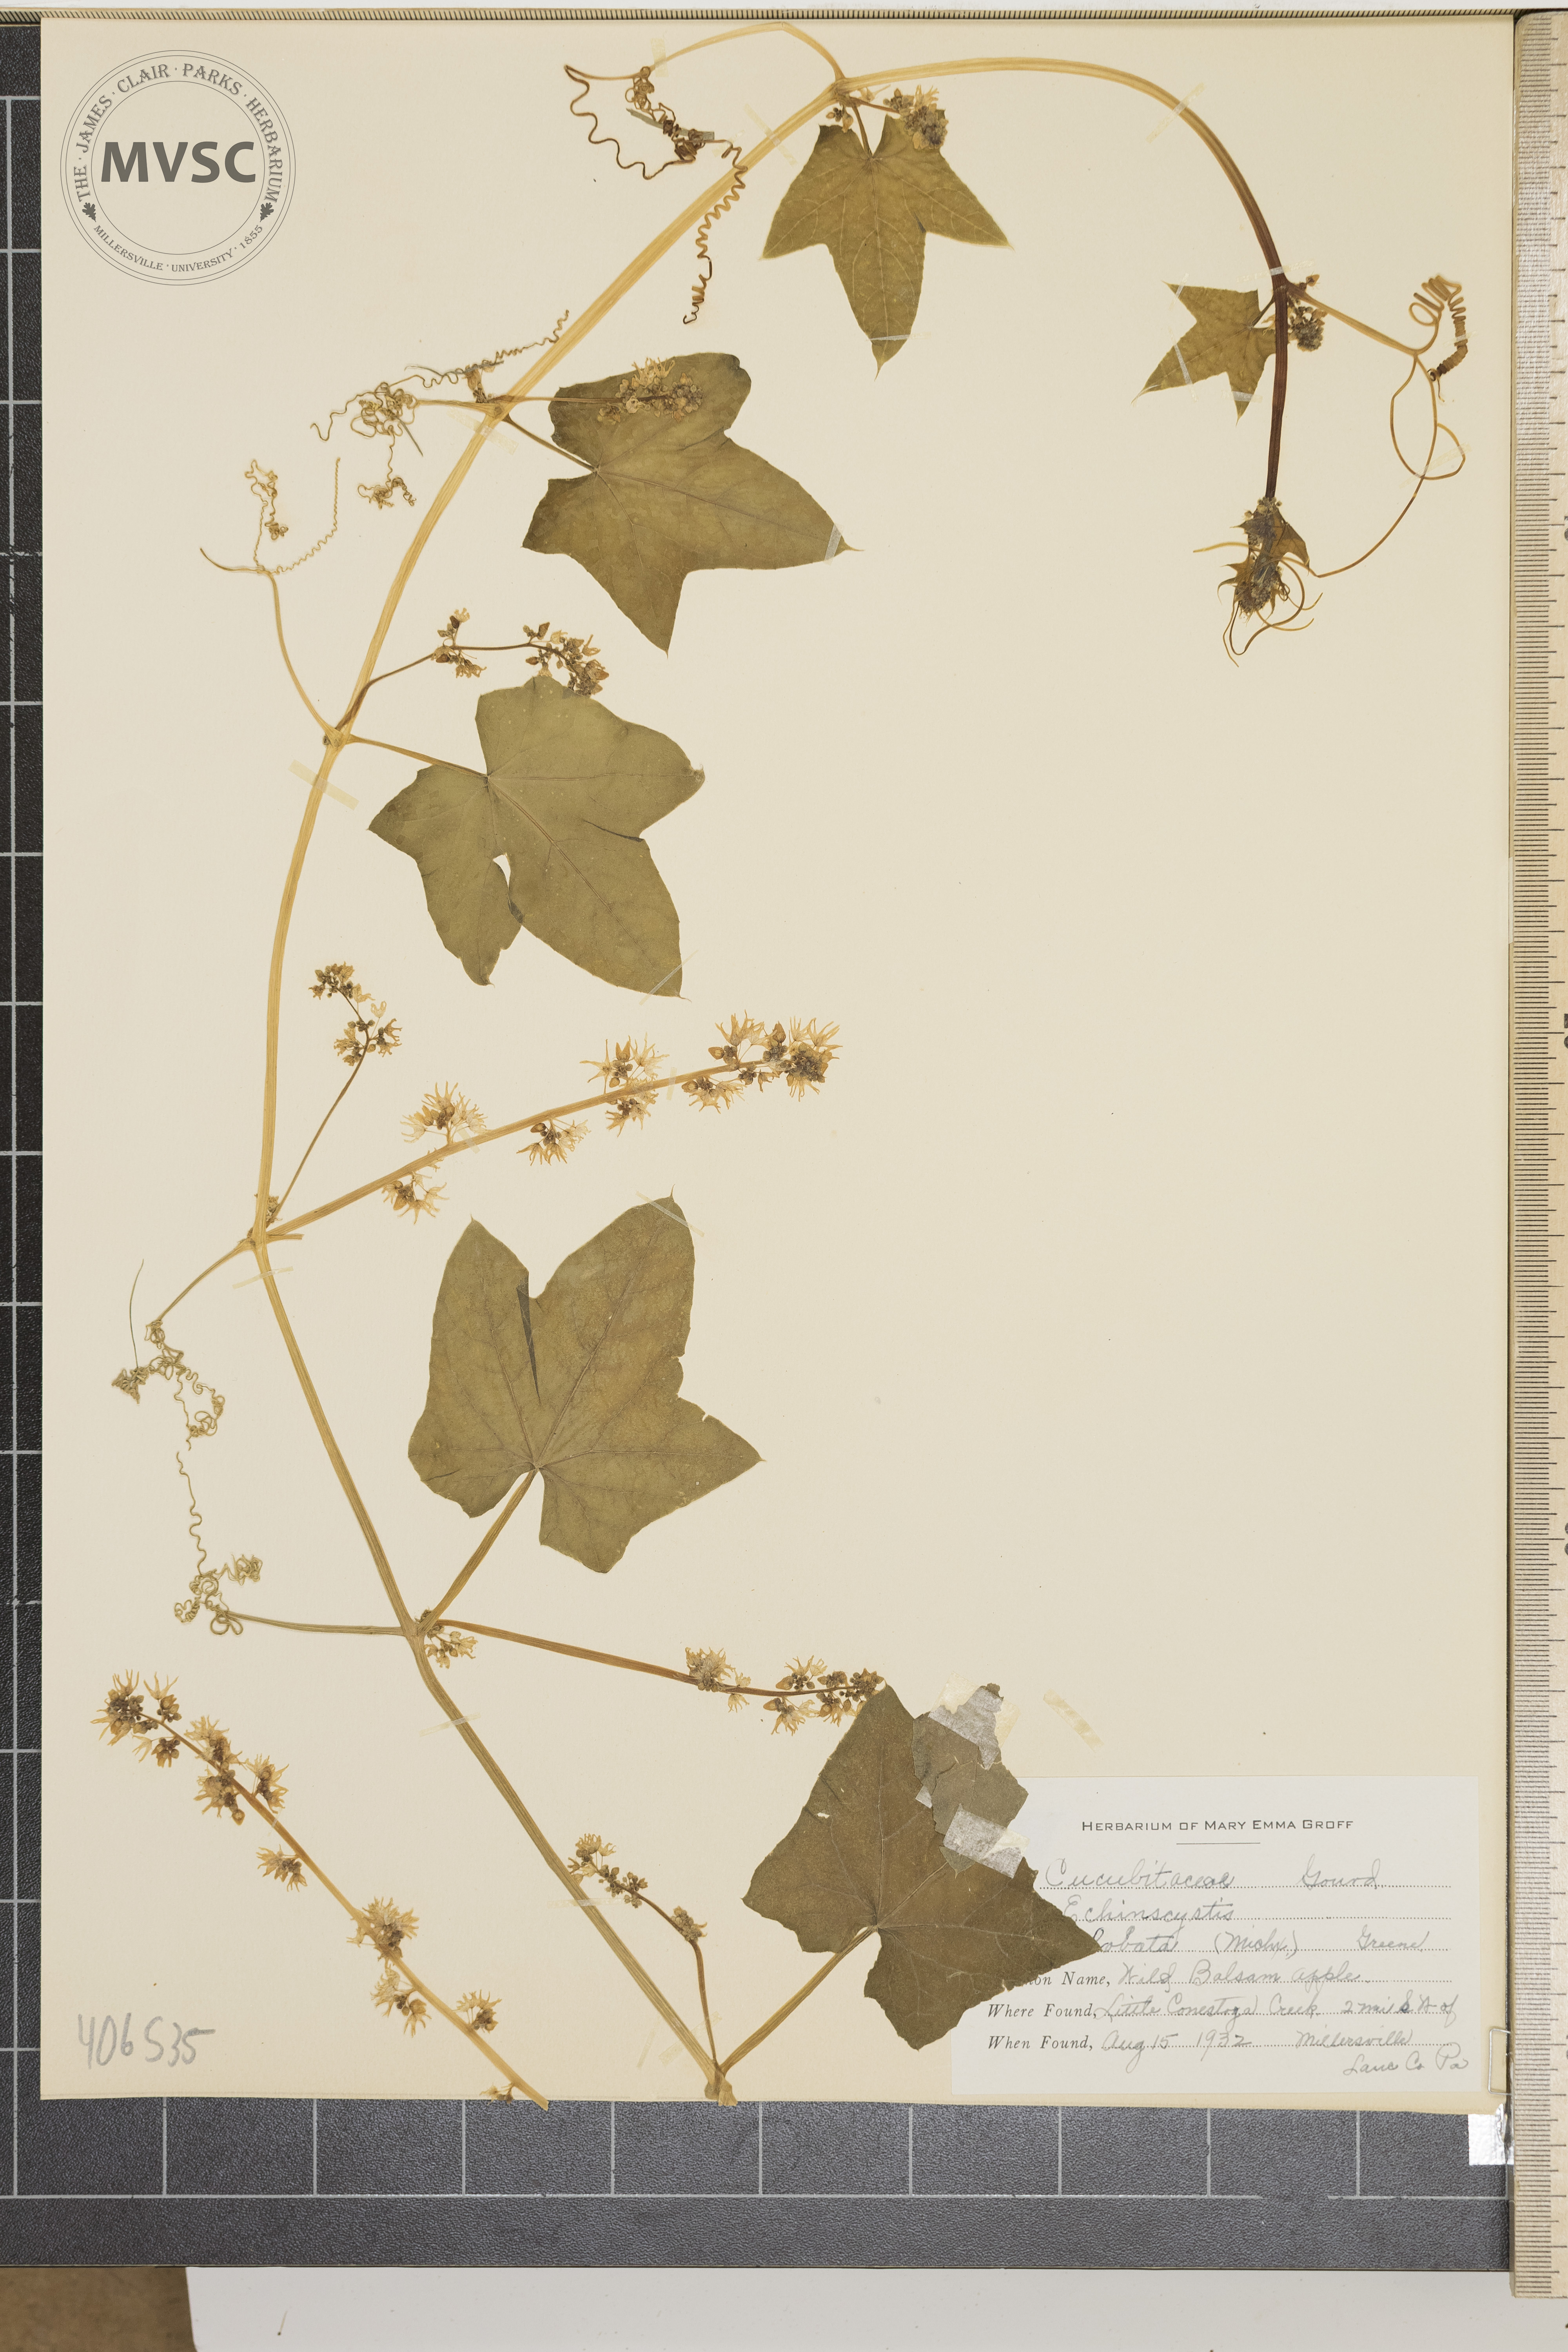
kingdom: Plantae
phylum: Tracheophyta
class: Magnoliopsida
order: Cucurbitales
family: Cucurbitaceae
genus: Echinocystis
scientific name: Echinocystis lobata
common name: Prickly cucumber
